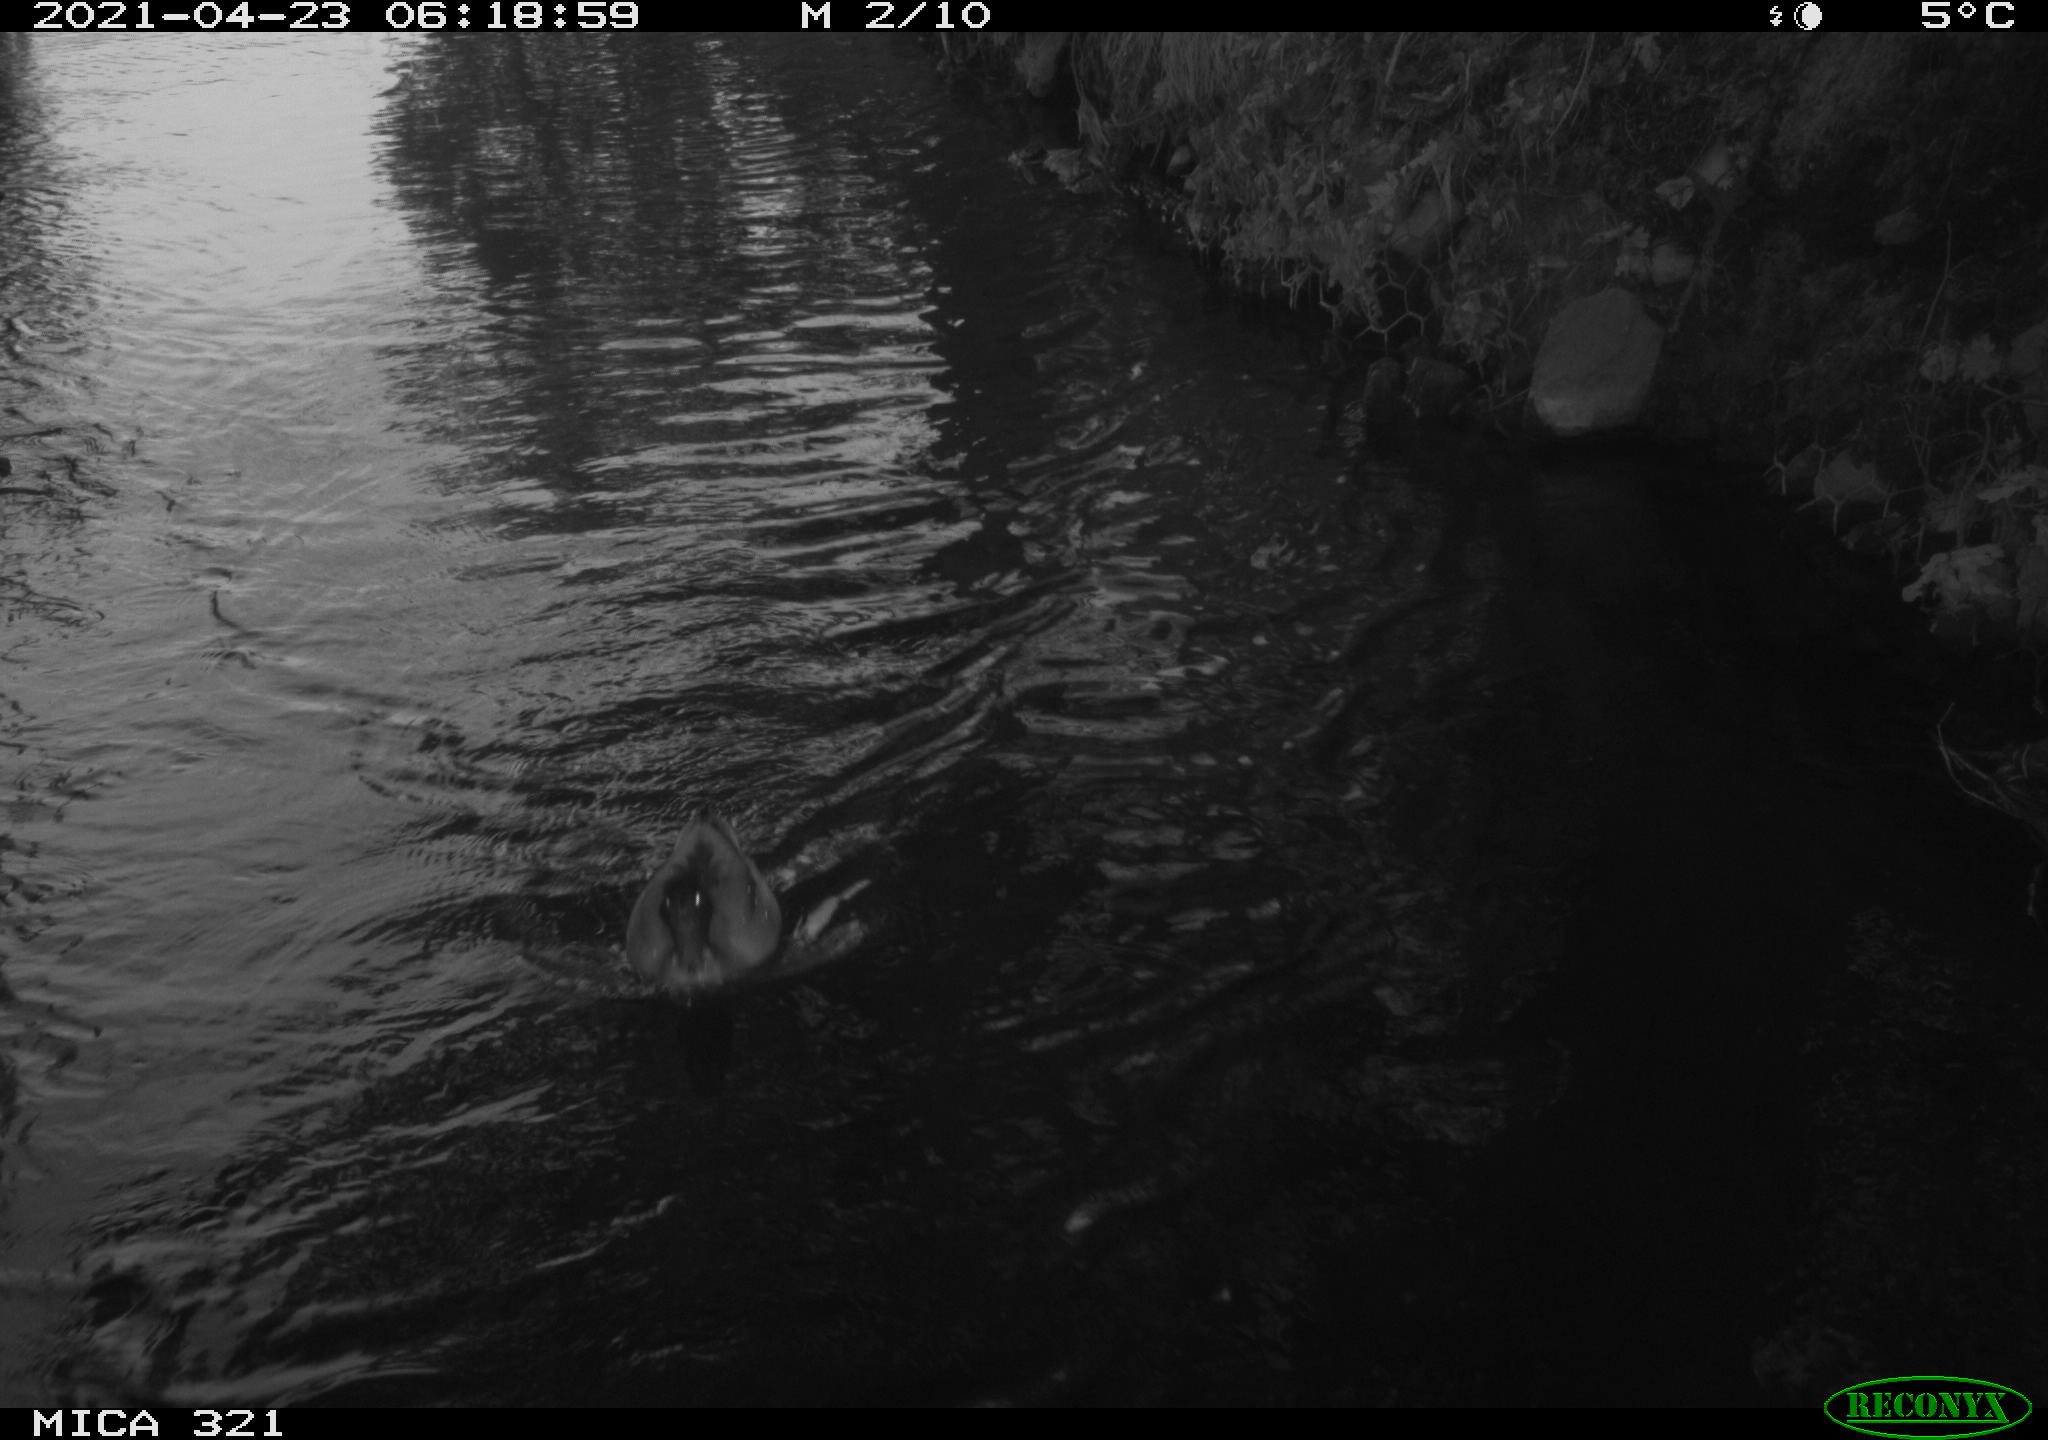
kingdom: Animalia
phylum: Chordata
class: Aves
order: Anseriformes
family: Anatidae
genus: Anas
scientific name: Anas
